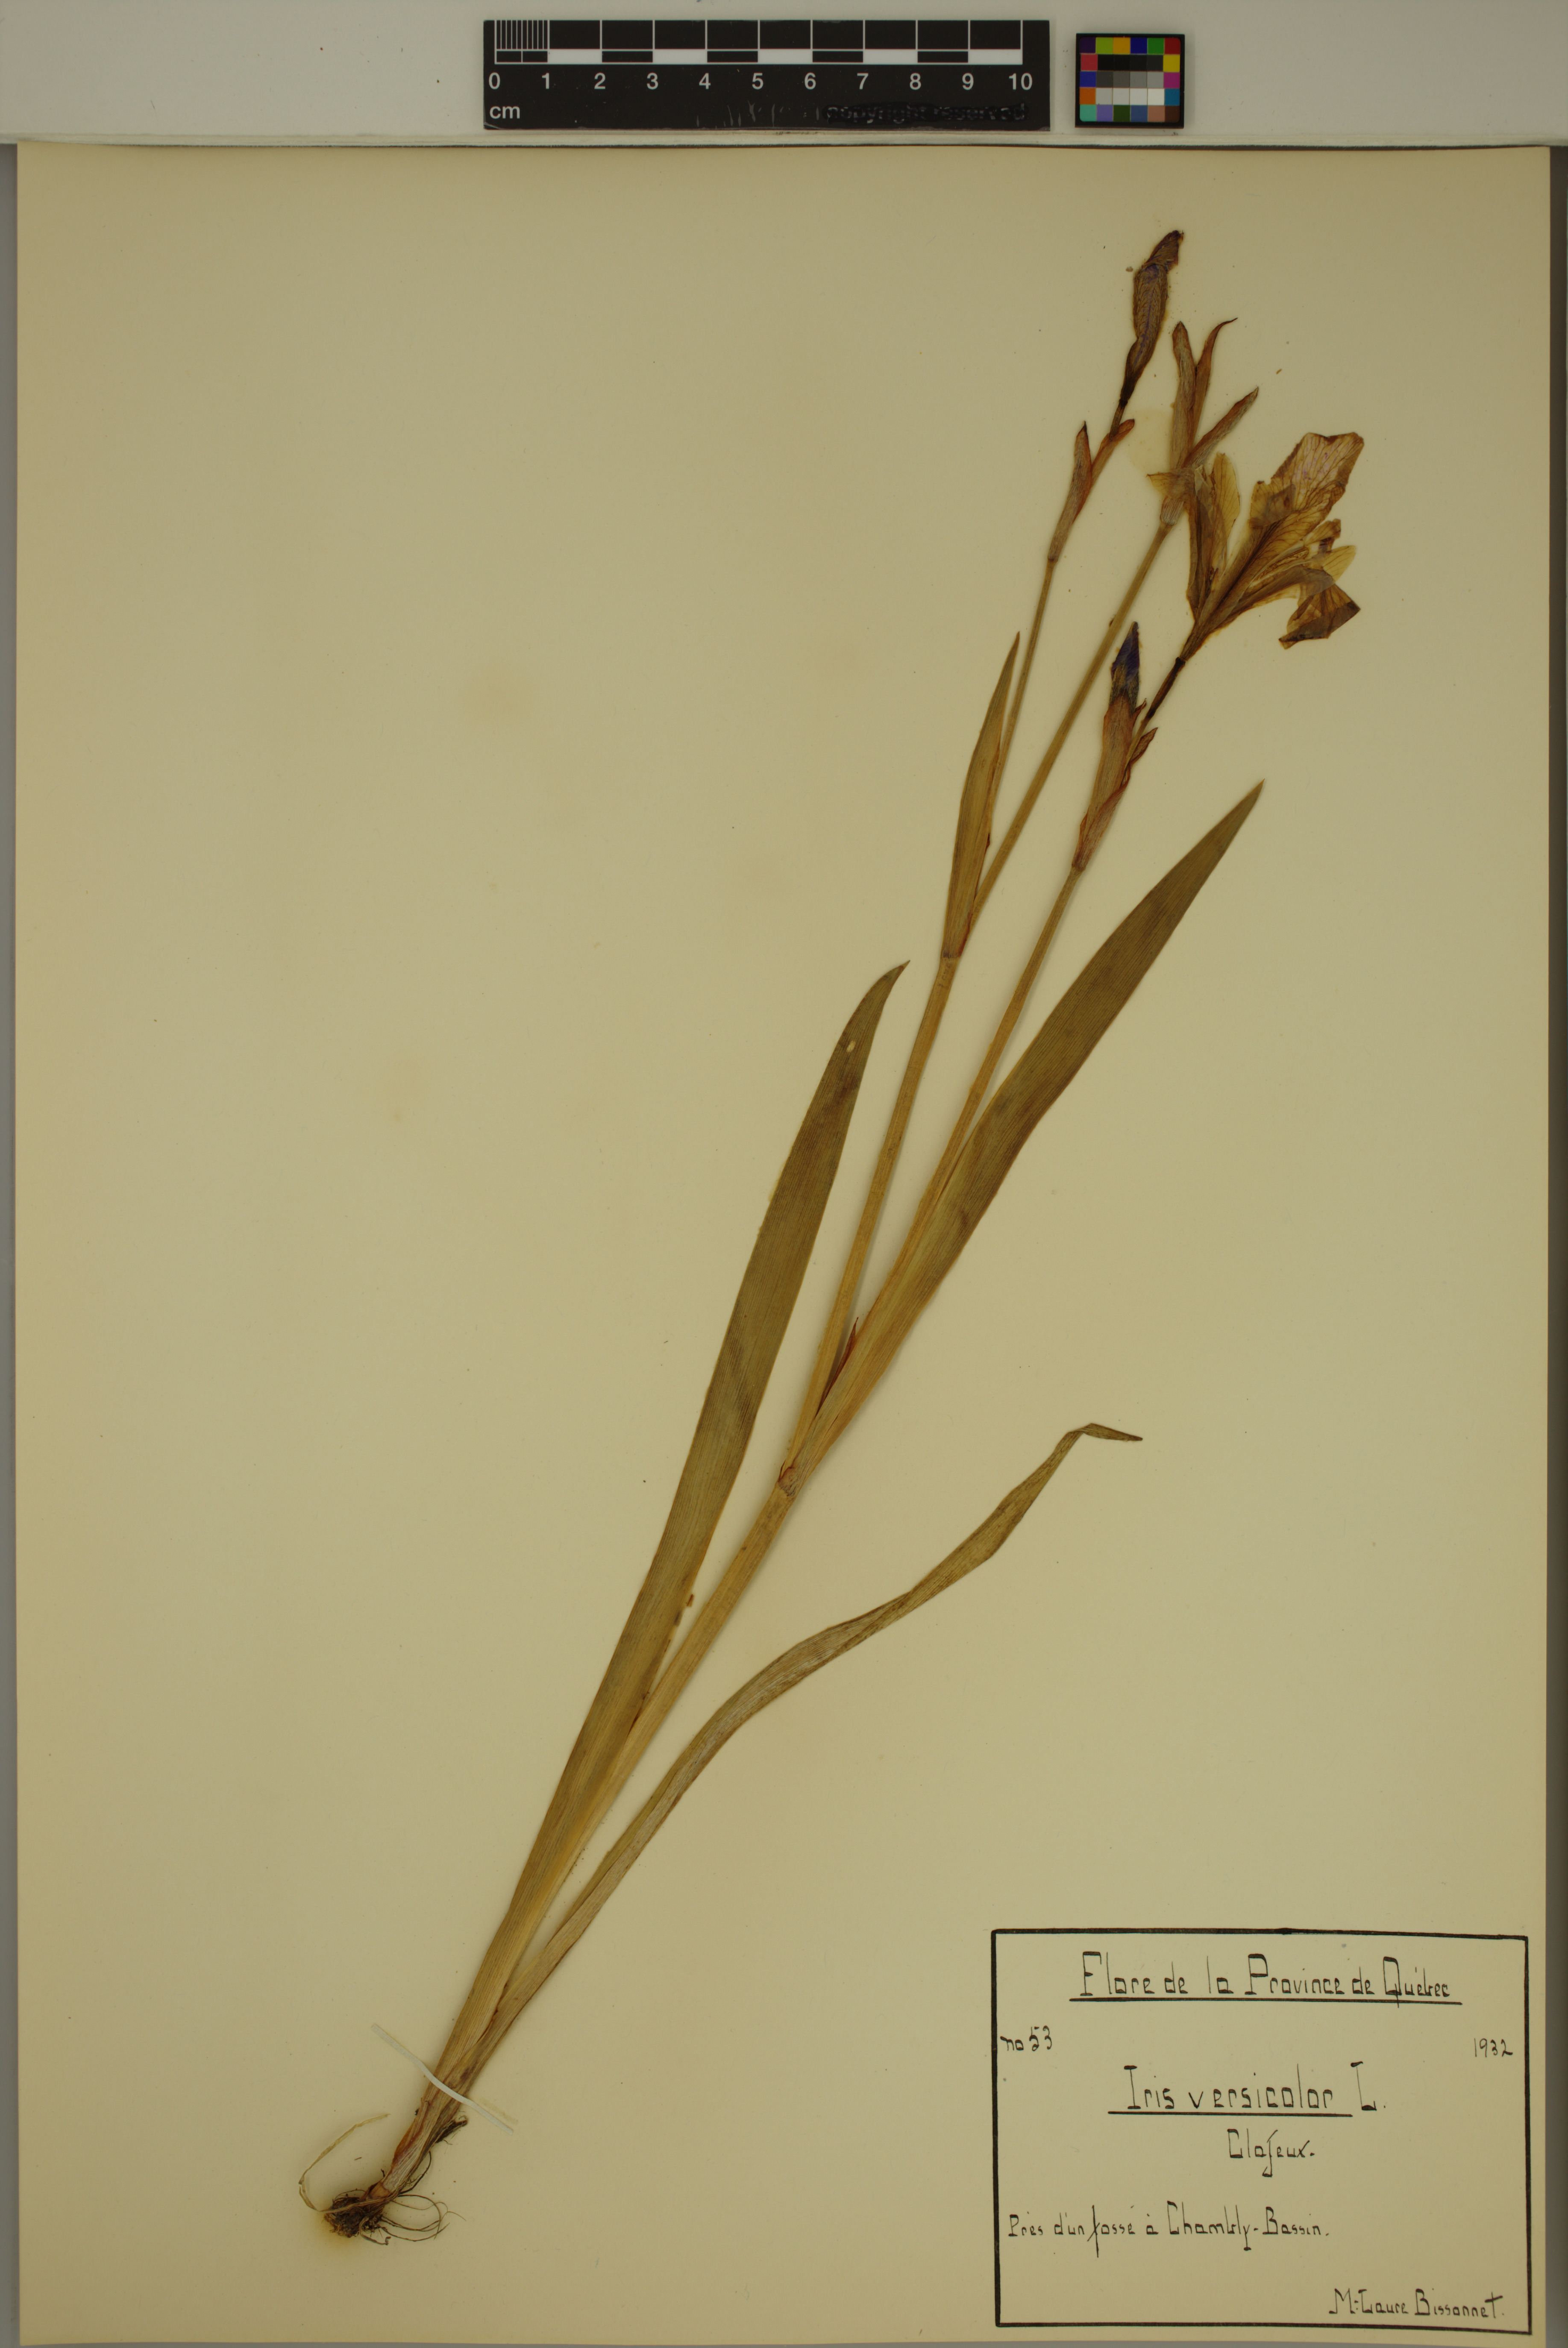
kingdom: Plantae
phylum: Tracheophyta
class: Liliopsida
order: Asparagales
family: Iridaceae
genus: Iris
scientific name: Iris versicolor
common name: Purple iris
